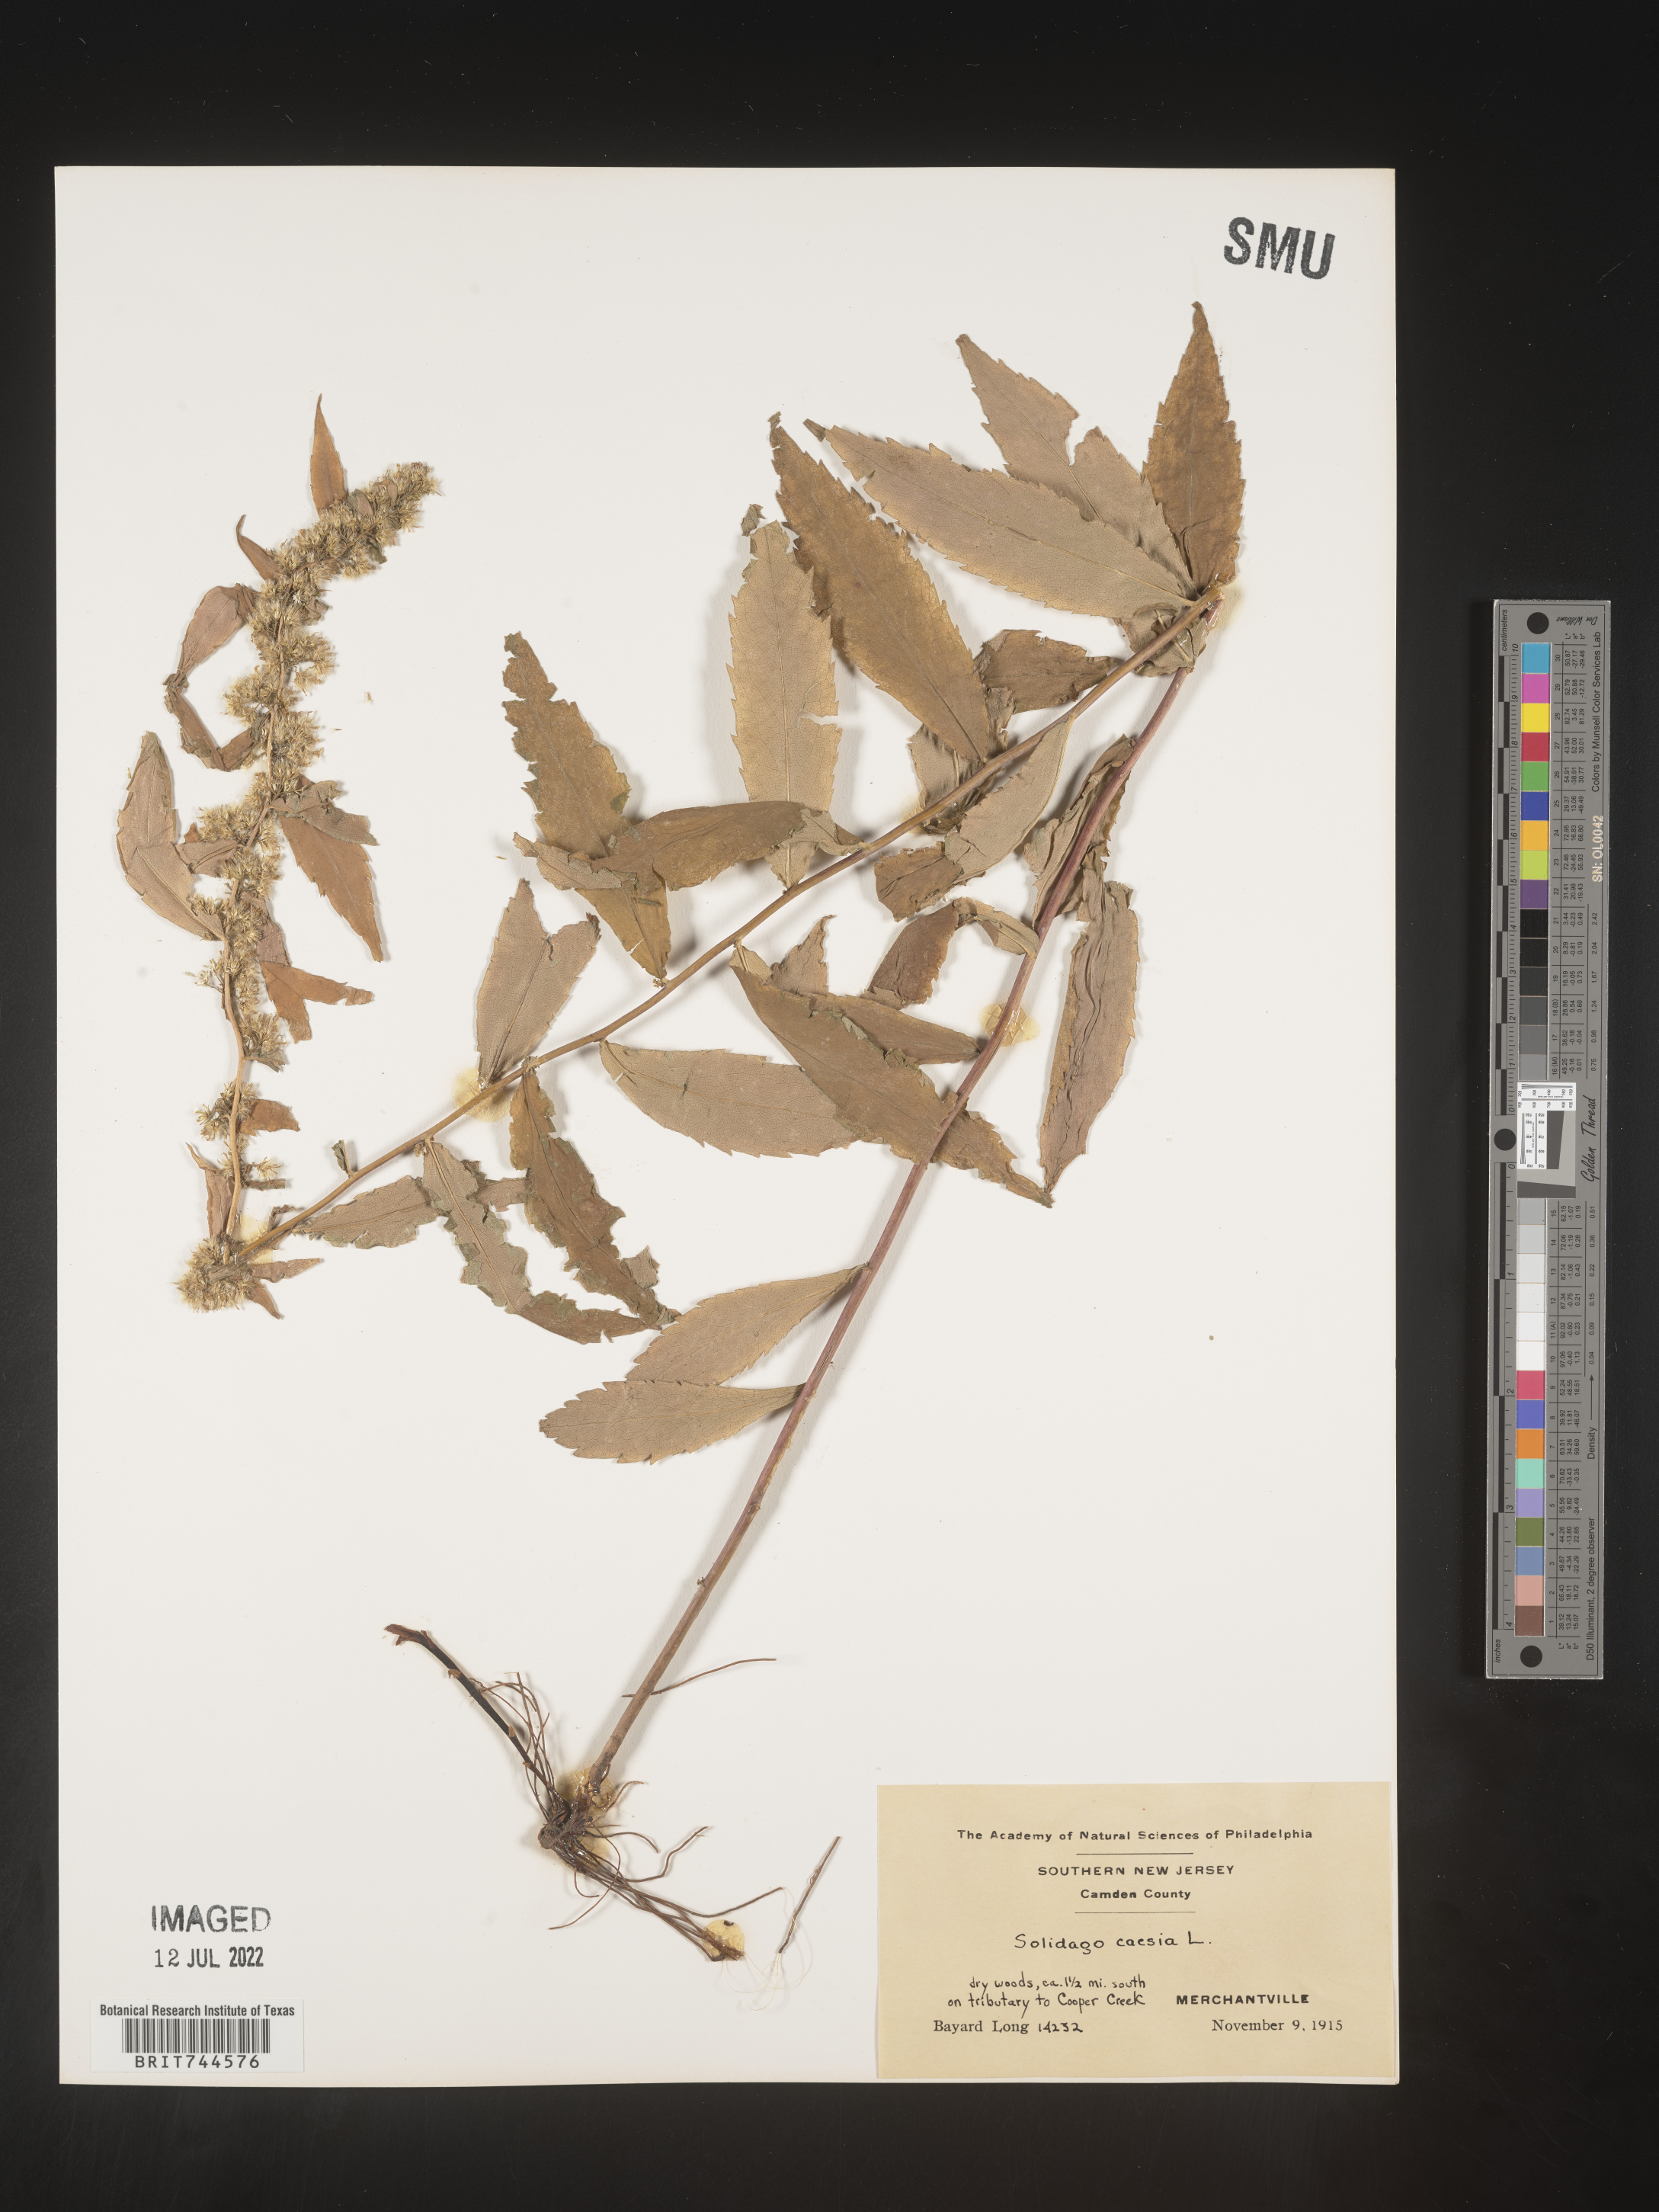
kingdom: Plantae
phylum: Tracheophyta
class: Magnoliopsida
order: Asterales
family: Asteraceae
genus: Solidago
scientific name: Solidago caesia
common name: Woodland goldenrod
